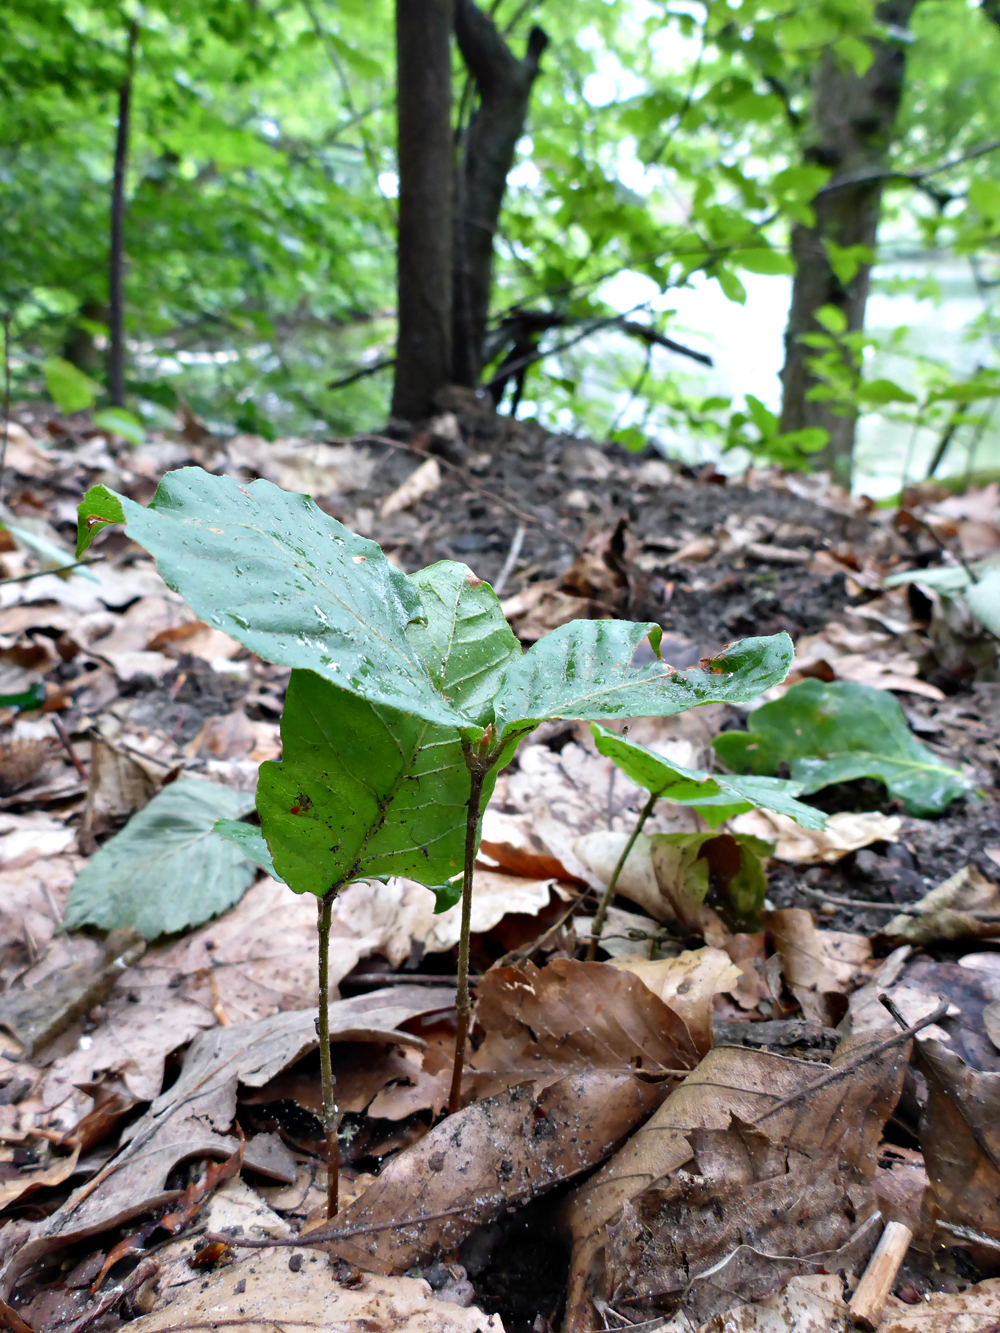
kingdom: Plantae
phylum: Tracheophyta
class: Magnoliopsida
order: Fagales
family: Fagaceae
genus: Fagus
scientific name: Fagus sylvatica
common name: Beech
